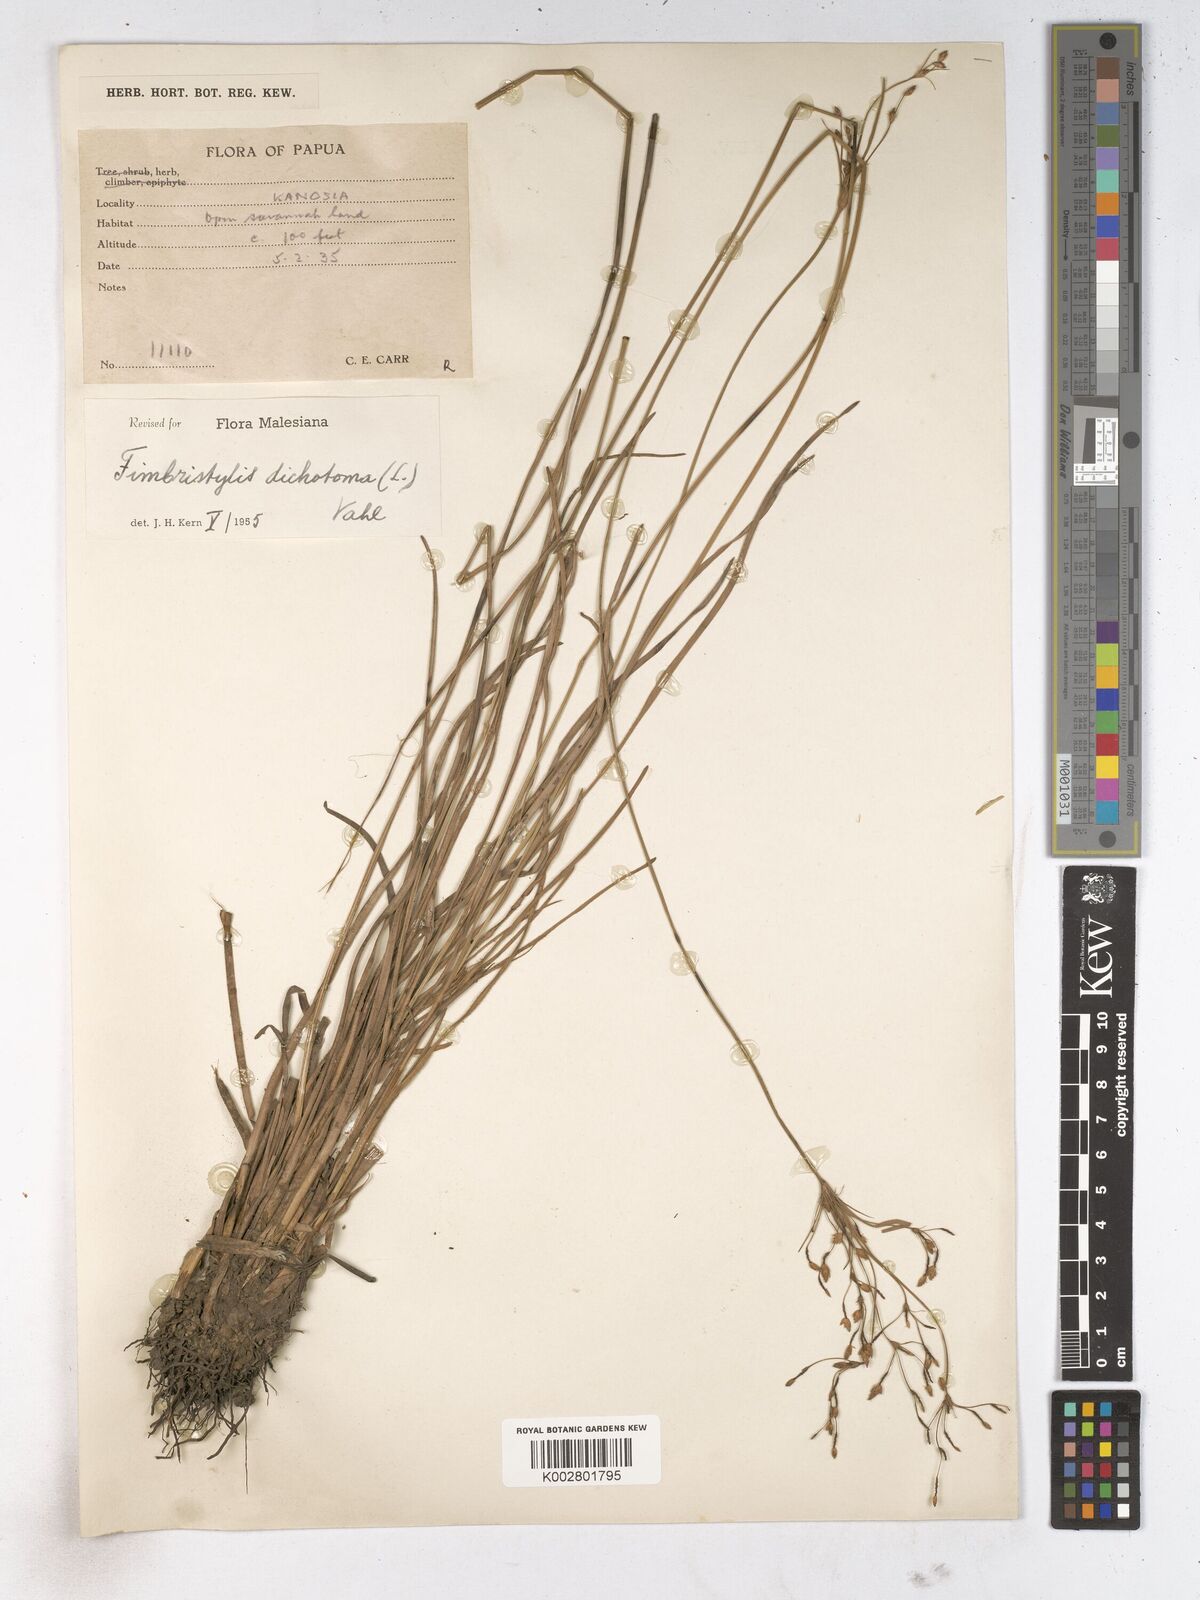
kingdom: Plantae
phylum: Tracheophyta
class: Liliopsida
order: Poales
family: Cyperaceae
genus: Fimbristylis
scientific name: Fimbristylis dichotoma
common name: Forked fimbry
